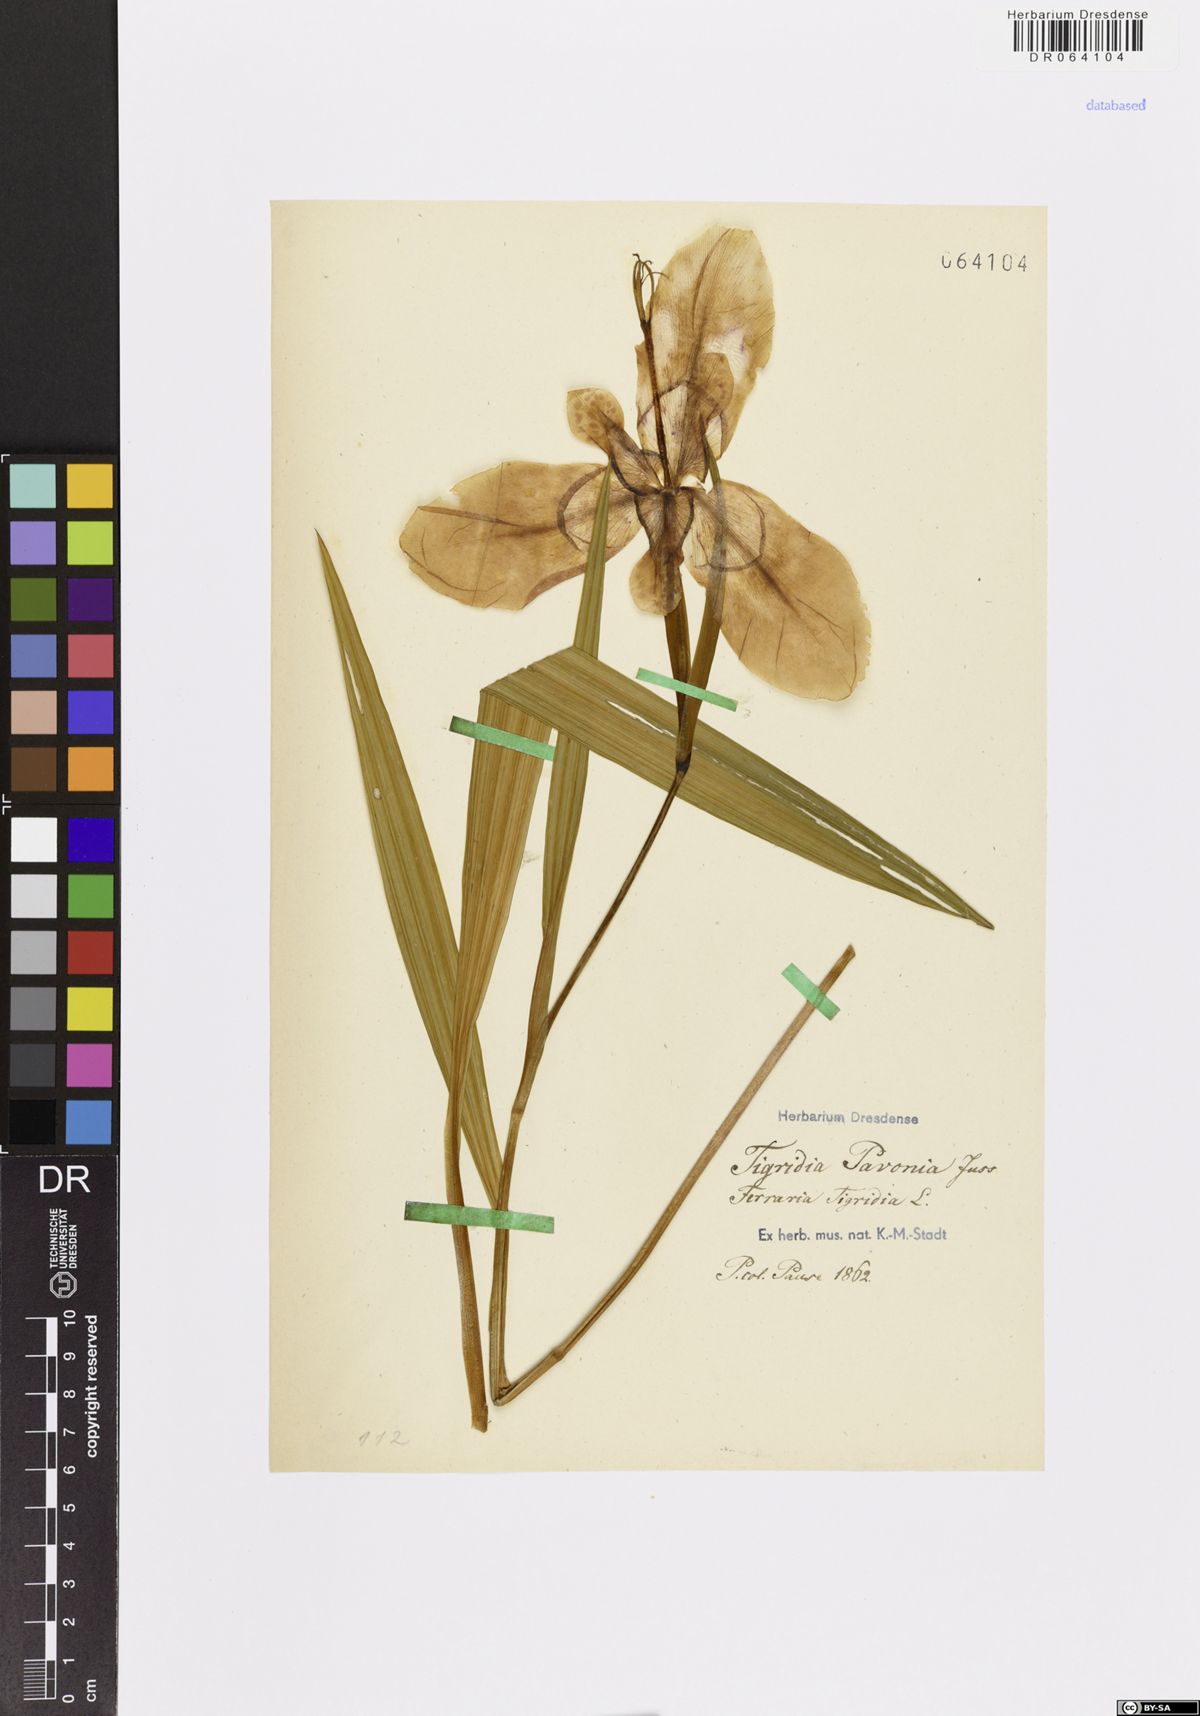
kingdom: Plantae
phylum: Tracheophyta
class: Liliopsida
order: Asparagales
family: Iridaceae
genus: Tigridia
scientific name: Tigridia pavonia
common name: Peacock-flower
